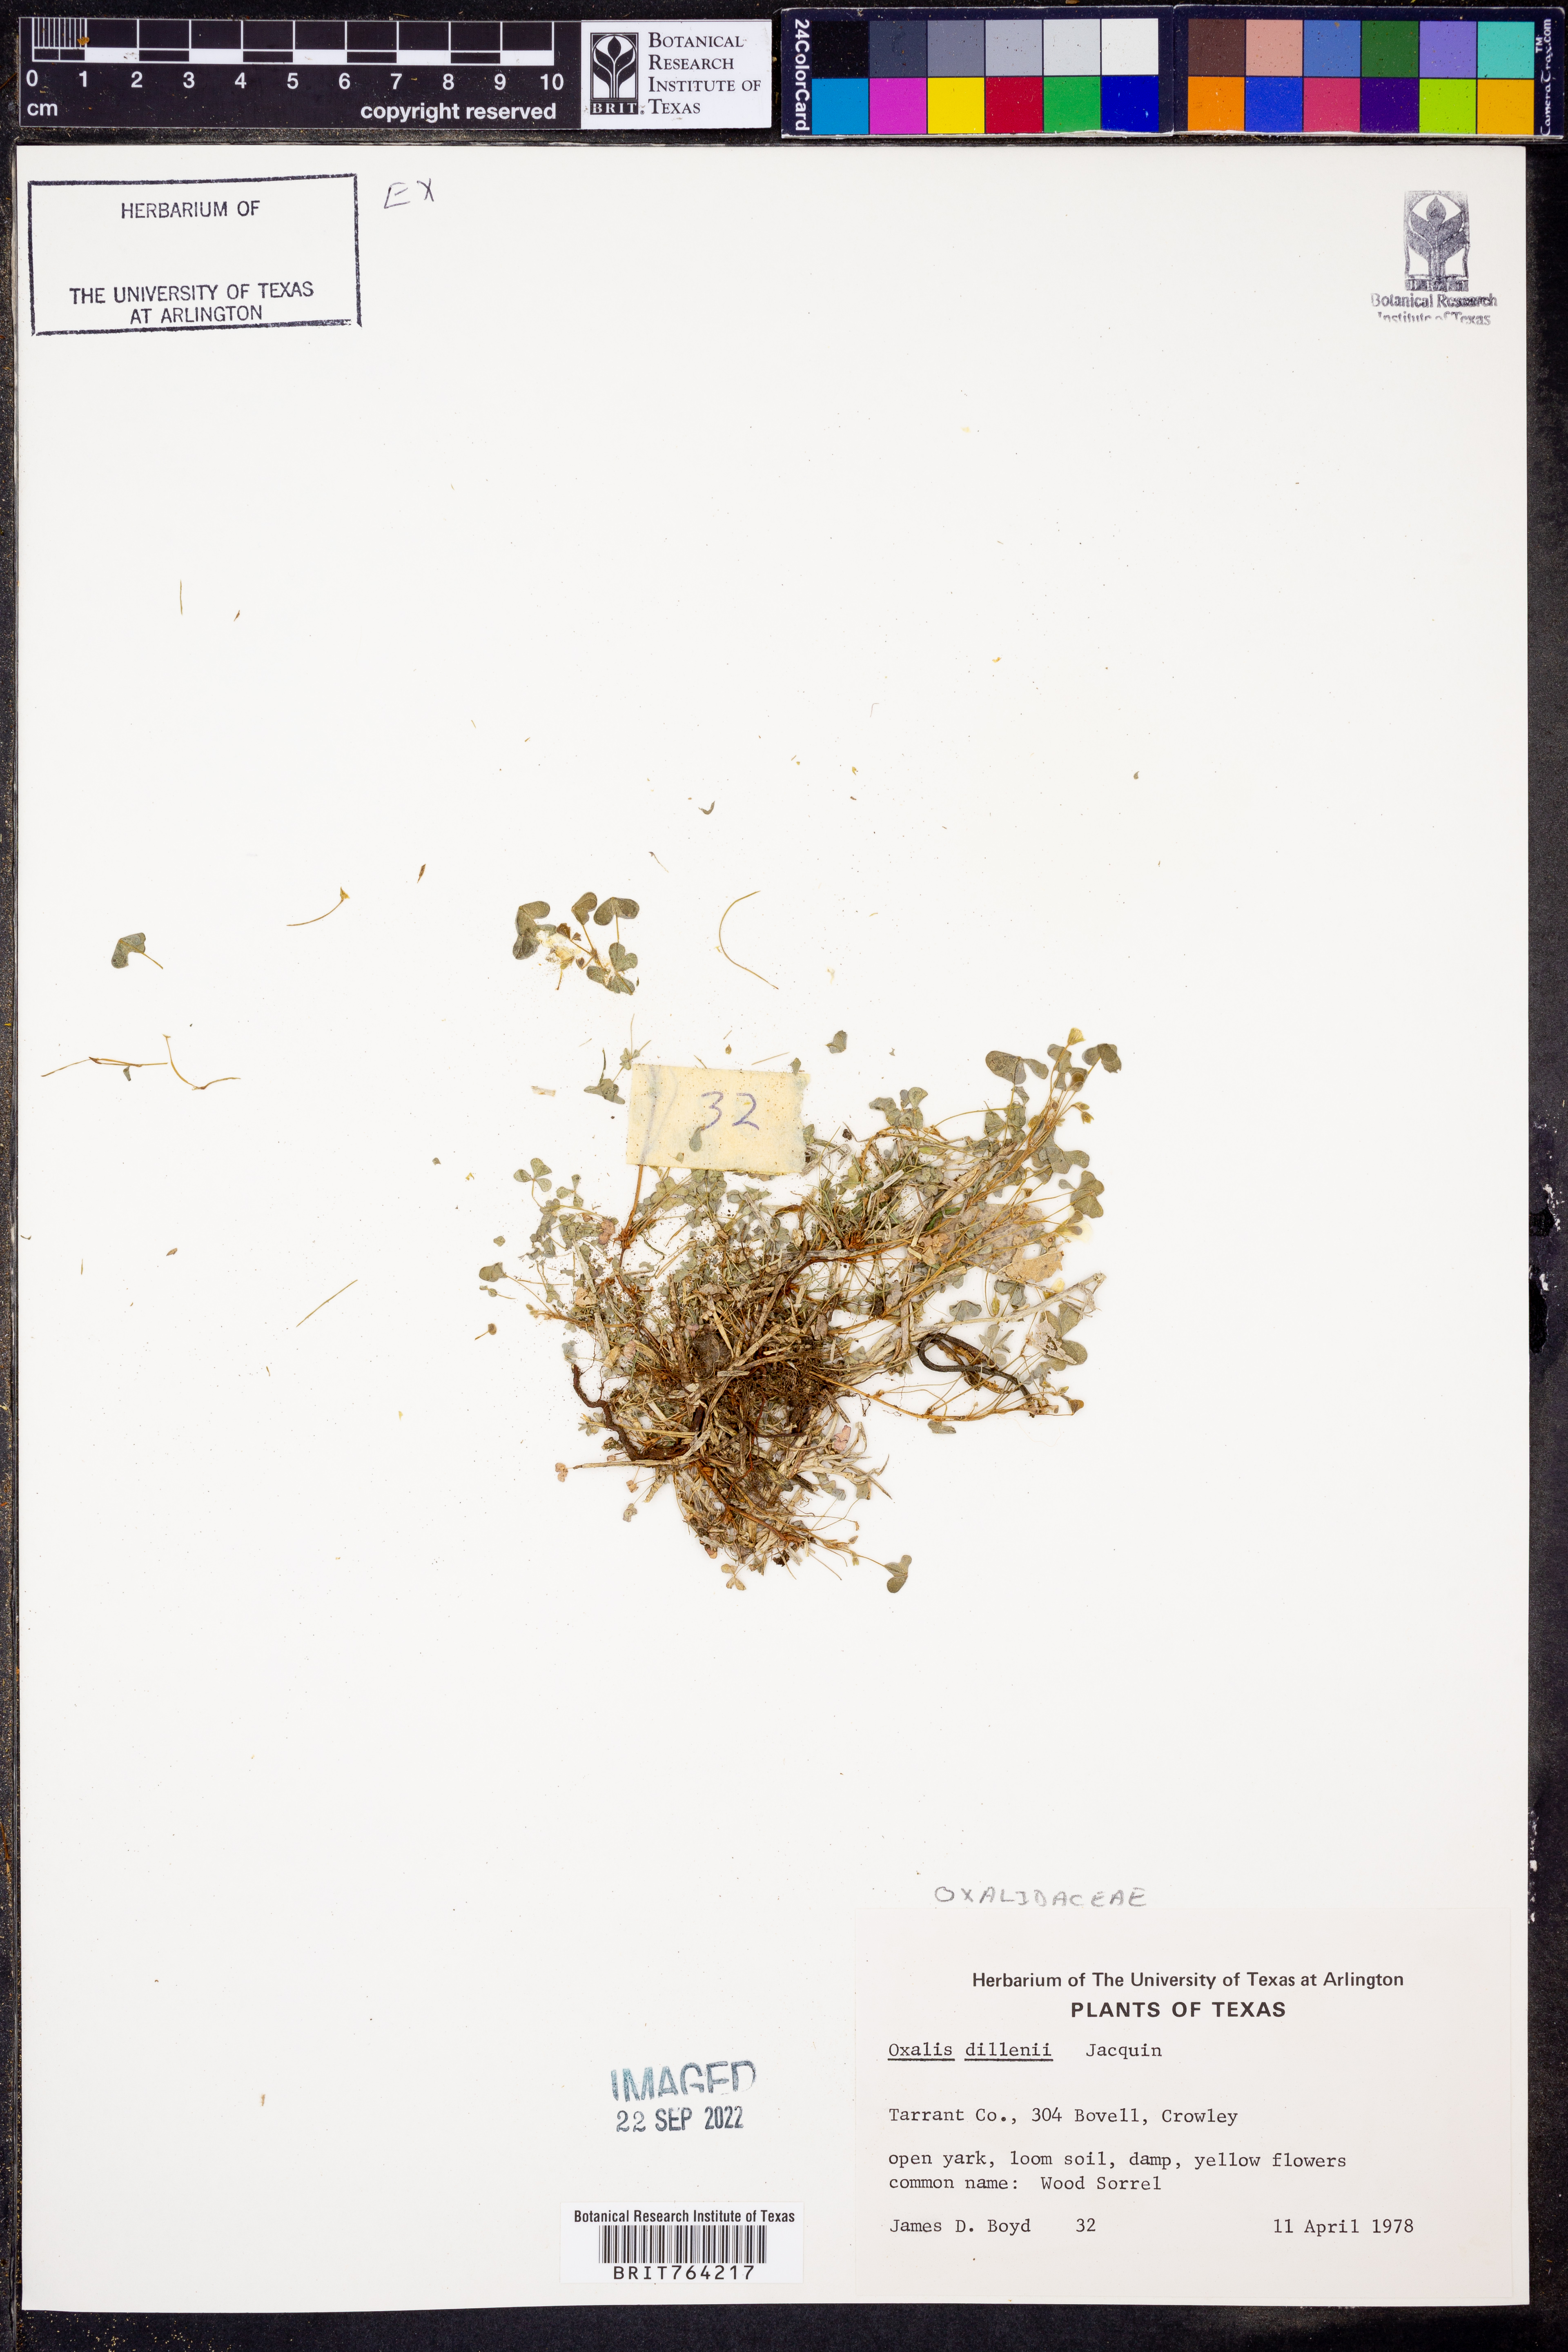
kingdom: Plantae
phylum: Tracheophyta
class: Magnoliopsida
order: Oxalidales
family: Oxalidaceae
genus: Oxalis
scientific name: Oxalis dillenii
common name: Sussex yellow-sorrel
